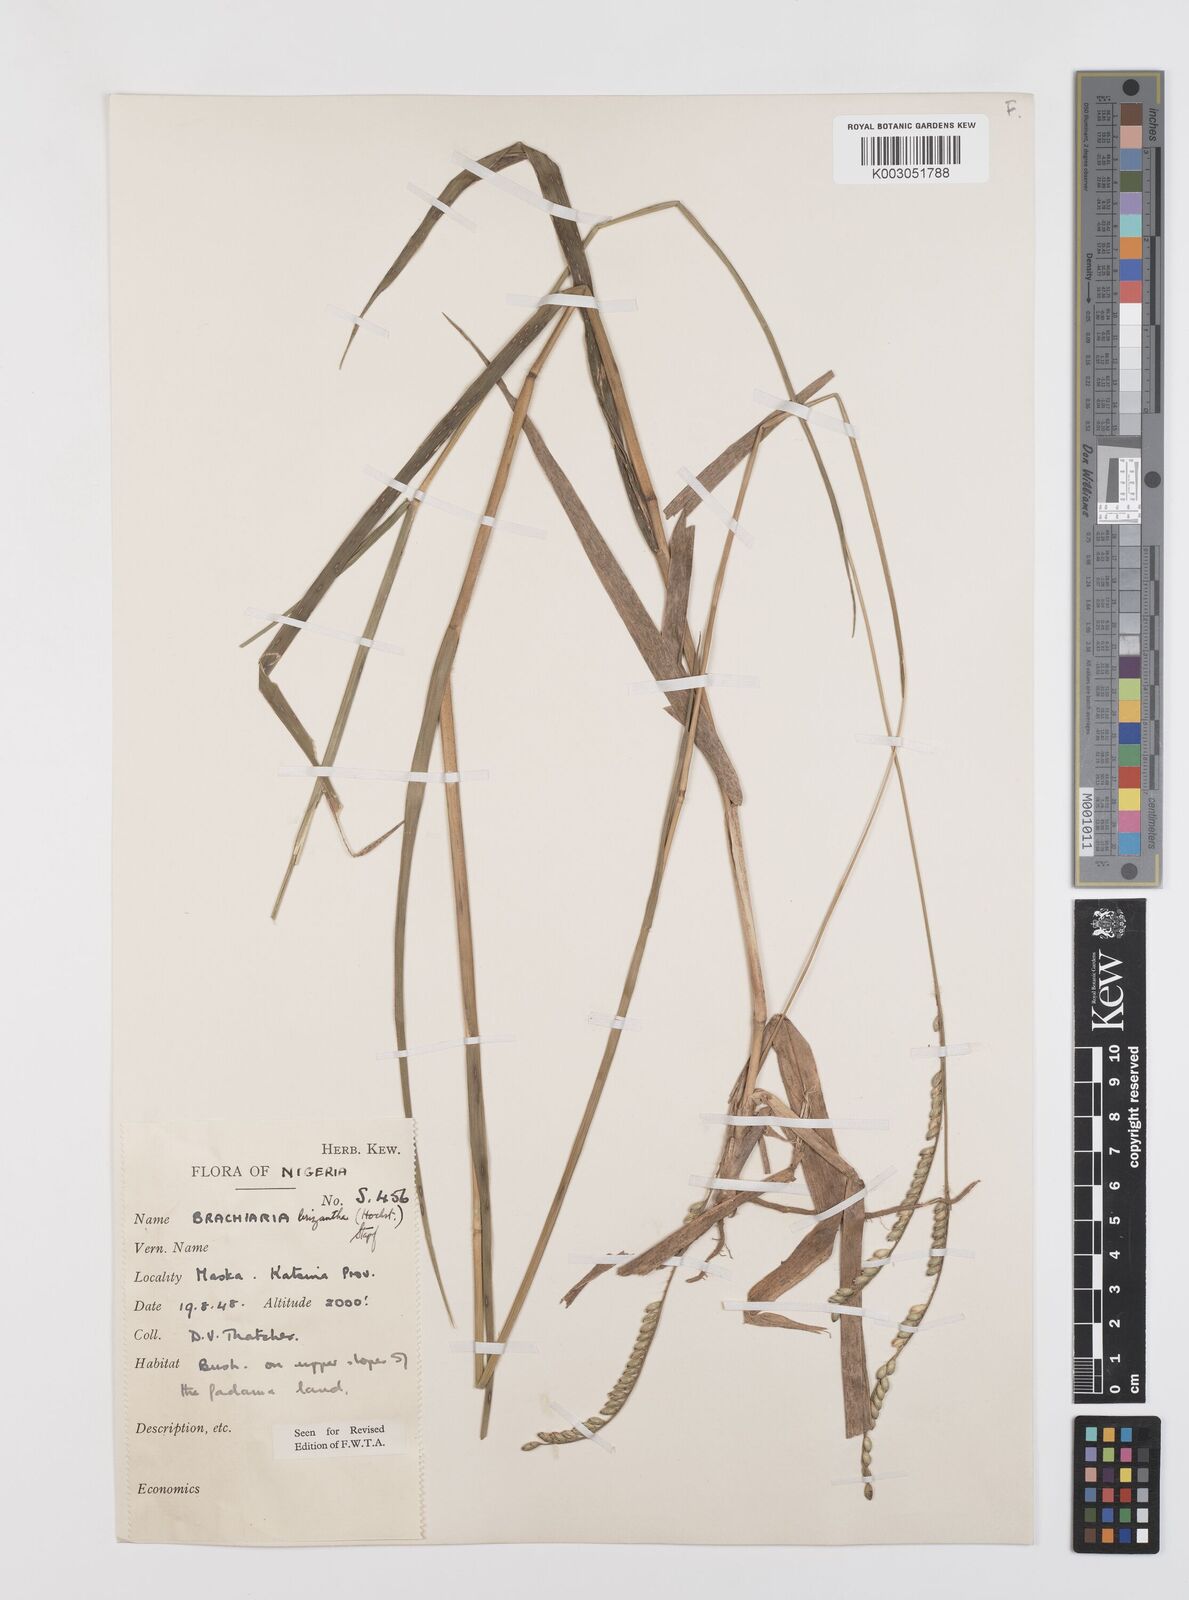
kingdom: Plantae
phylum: Tracheophyta
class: Liliopsida
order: Poales
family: Poaceae
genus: Urochloa
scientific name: Urochloa brizantha
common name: Palisade signalgrass
